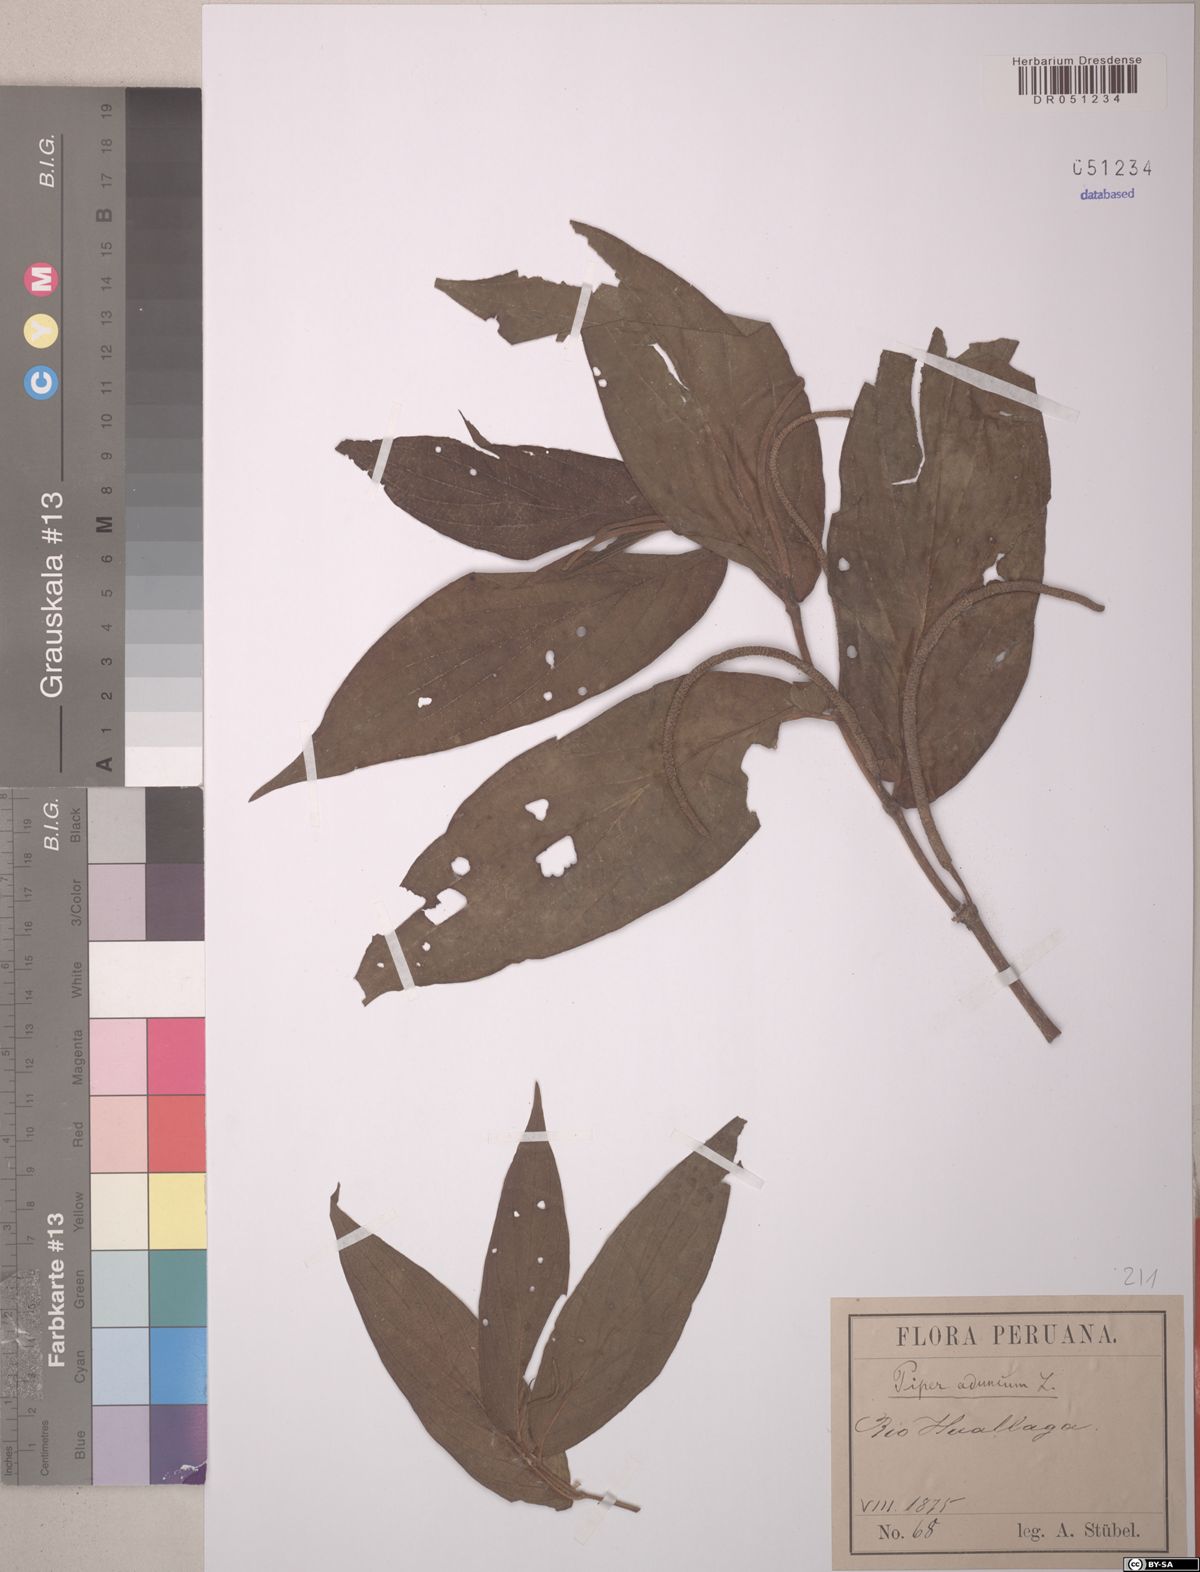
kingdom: Plantae
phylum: Tracheophyta
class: Magnoliopsida
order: Piperales
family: Piperaceae
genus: Piper
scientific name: Piper aduncum
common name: Spiked pepper
